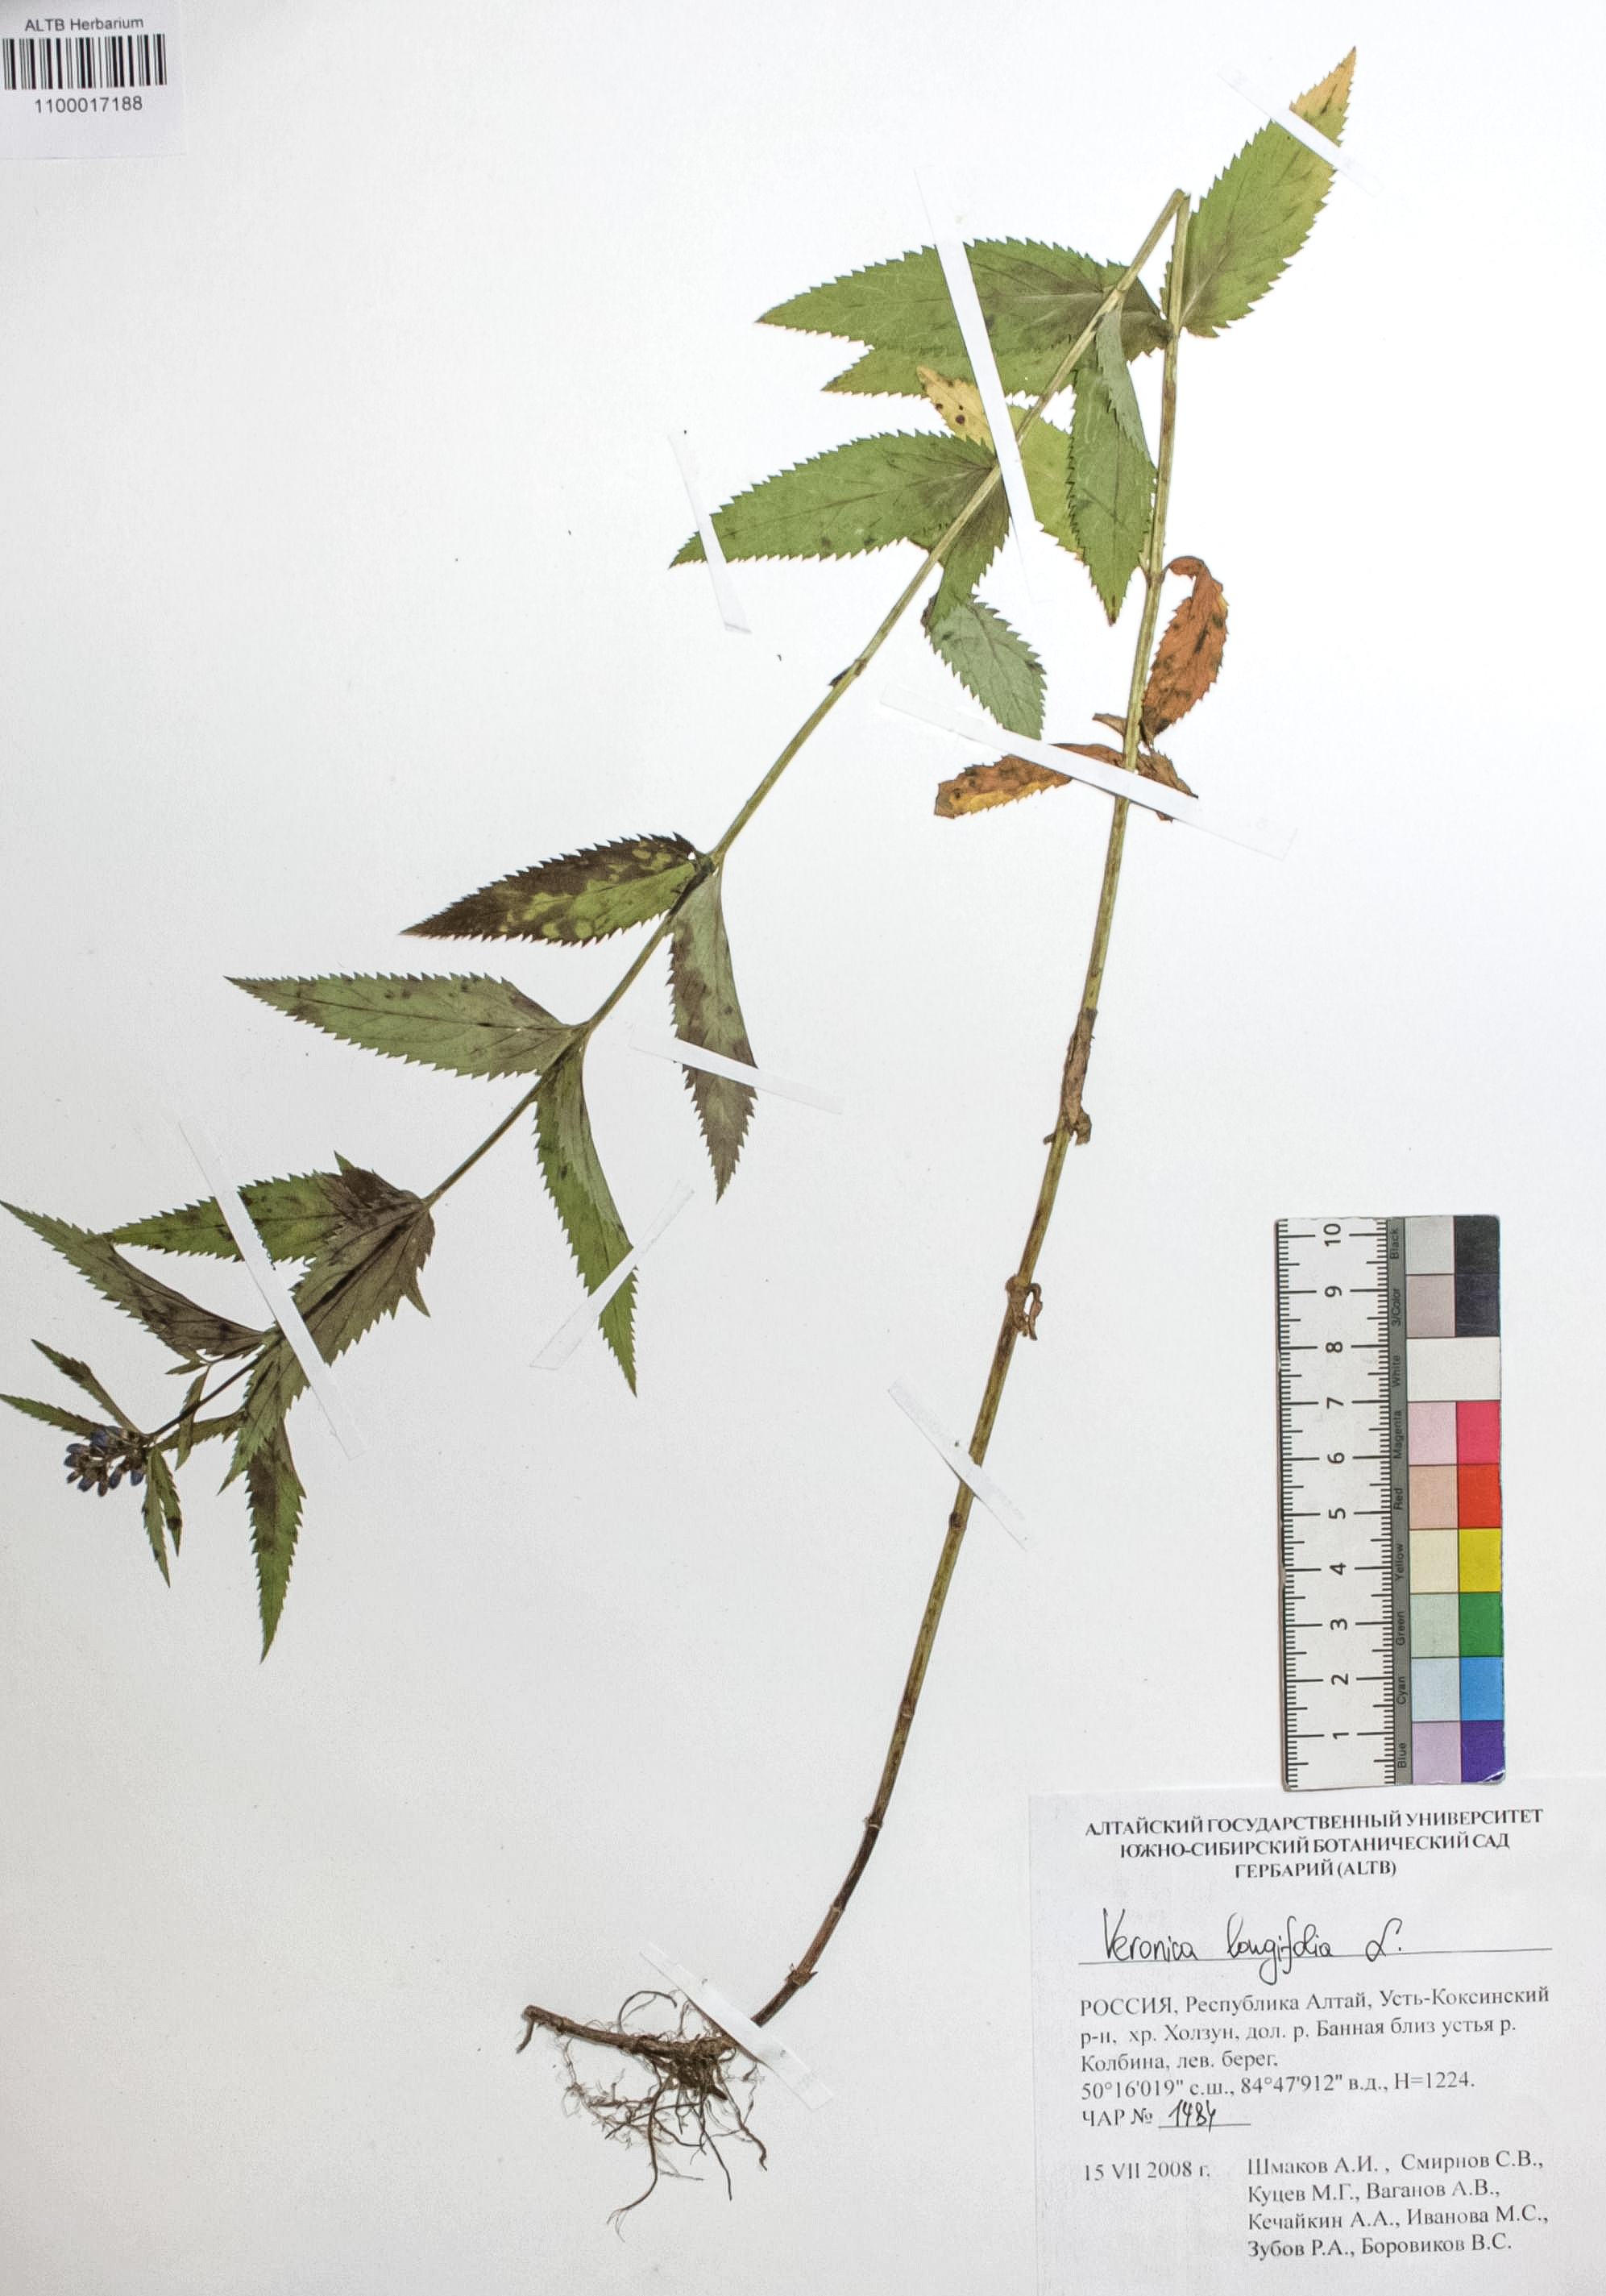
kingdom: Plantae
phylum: Tracheophyta
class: Magnoliopsida
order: Lamiales
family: Plantaginaceae
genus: Veronica
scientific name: Veronica longifolia
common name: Garden speedwell
